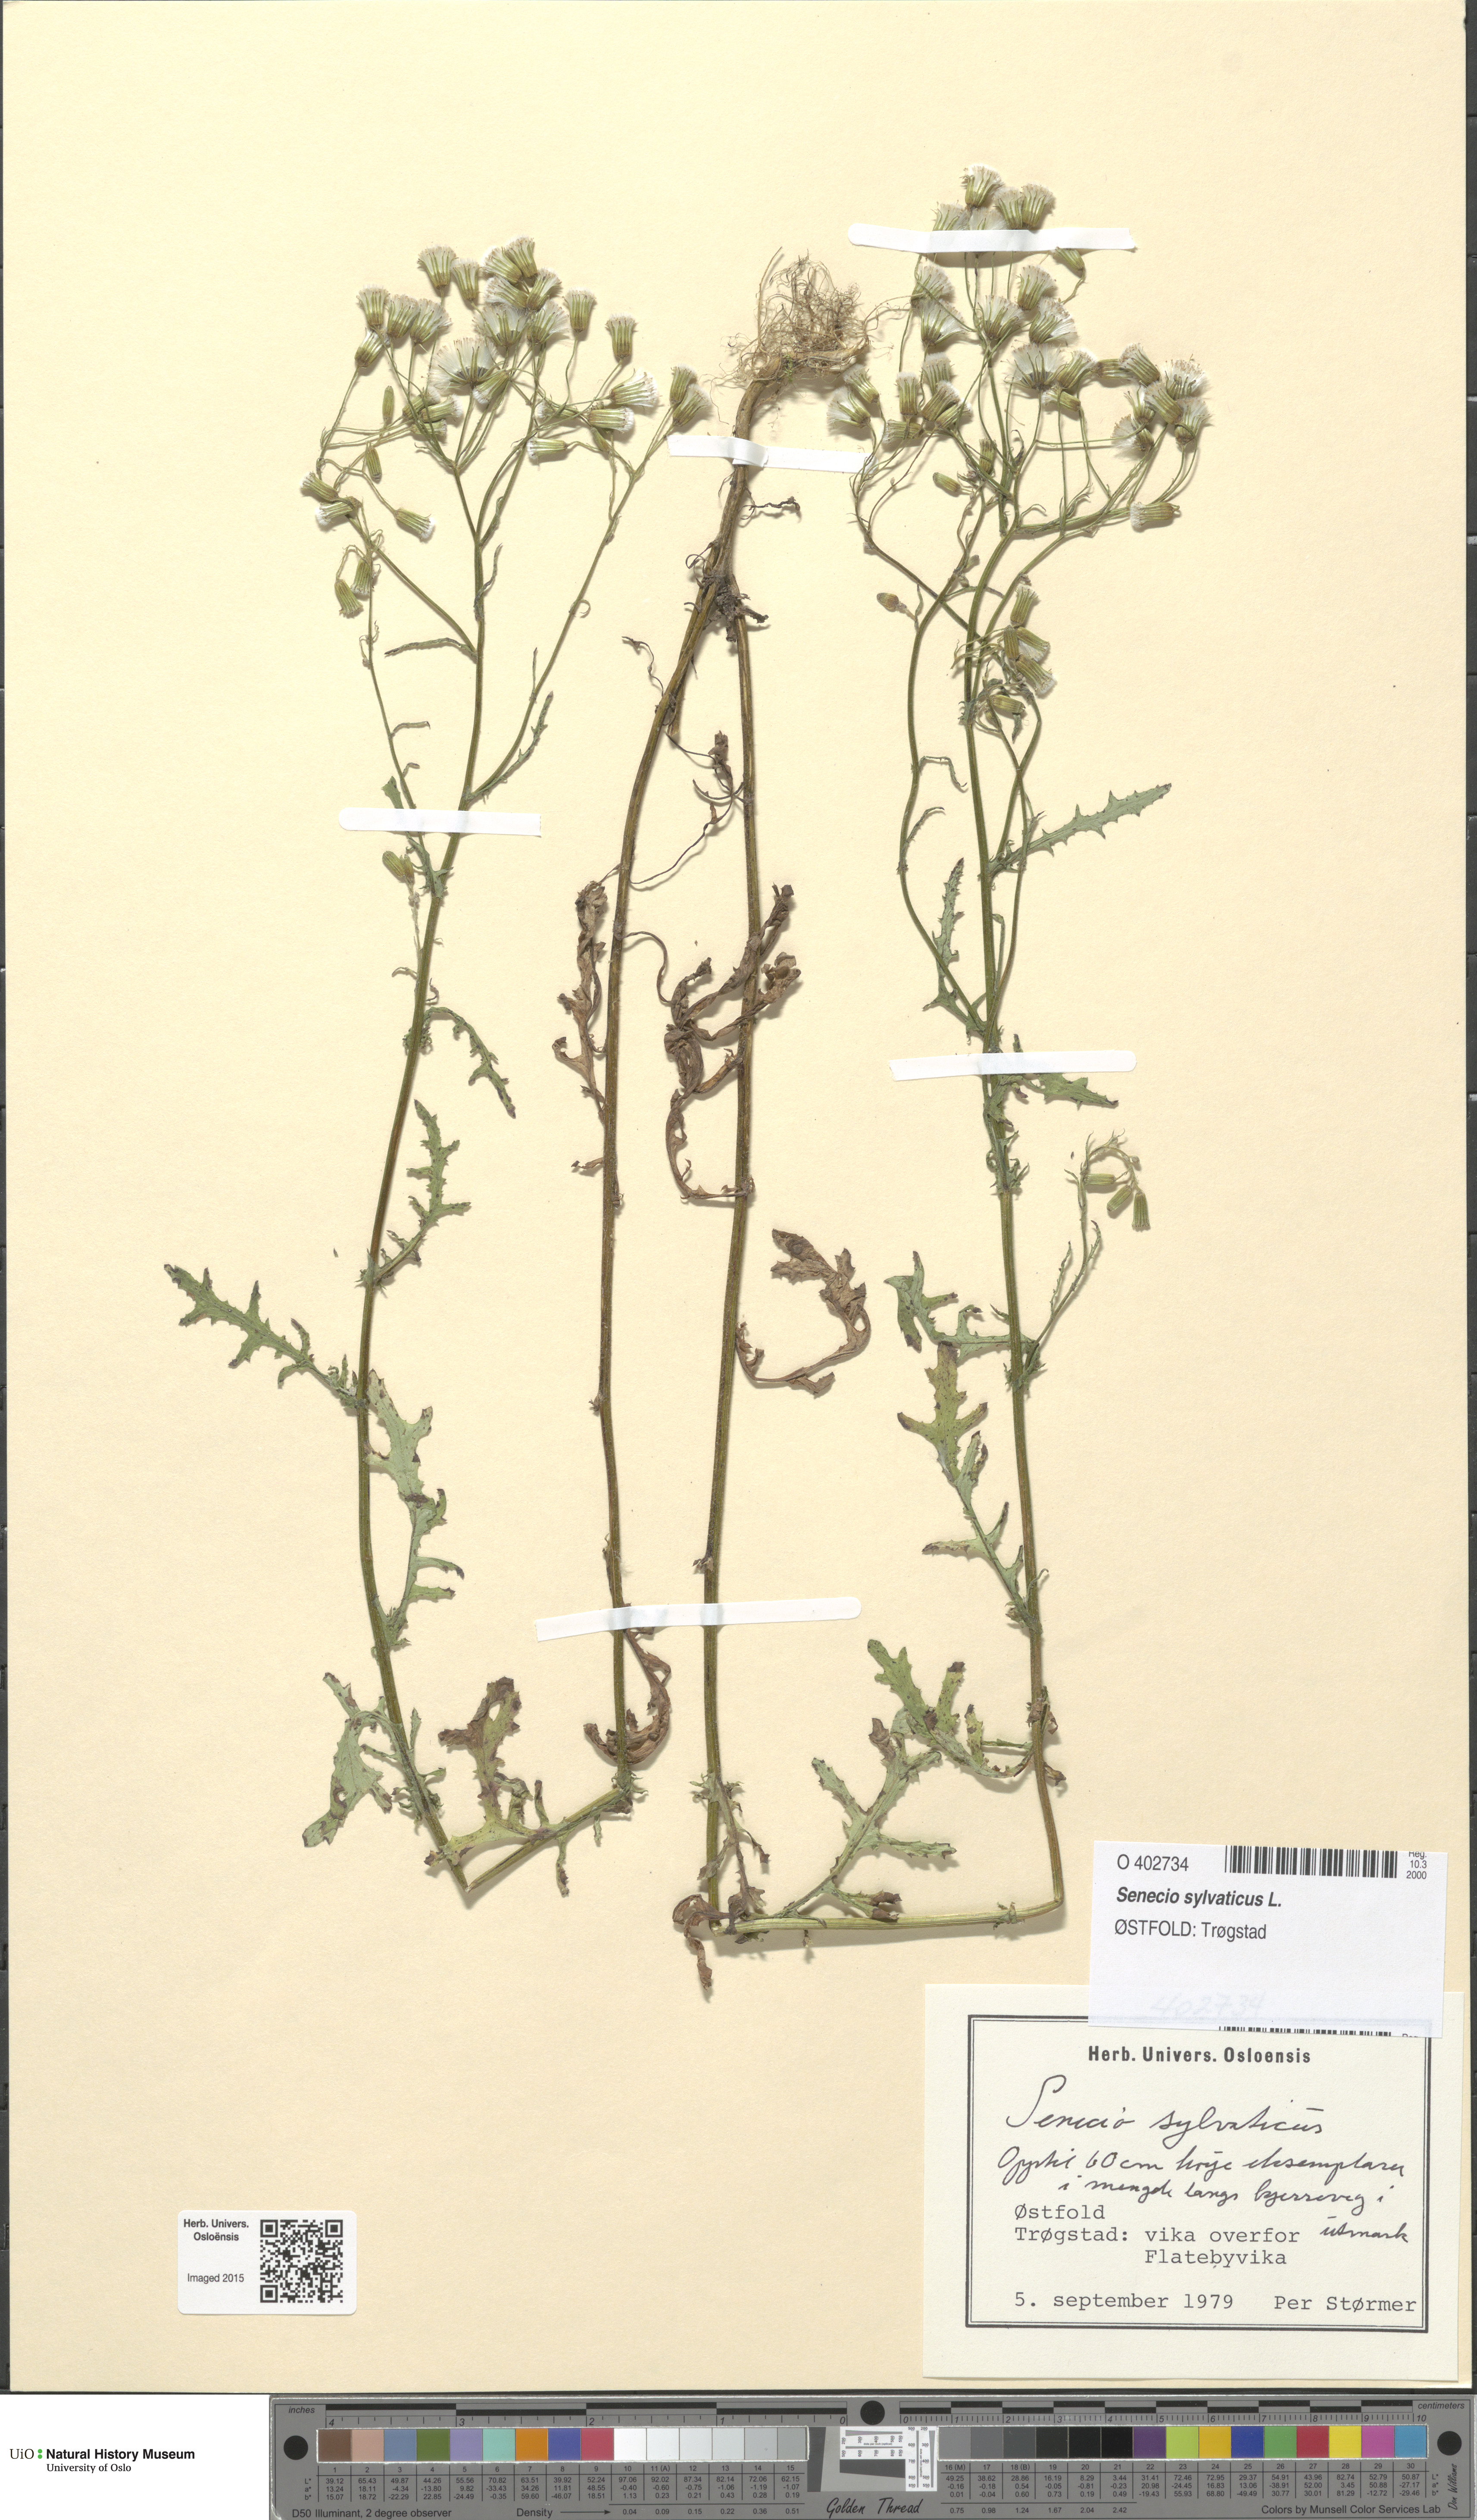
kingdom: Plantae
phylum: Tracheophyta
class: Magnoliopsida
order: Asterales
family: Asteraceae
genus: Senecio
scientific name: Senecio sylvaticus
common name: Woodland ragwort
